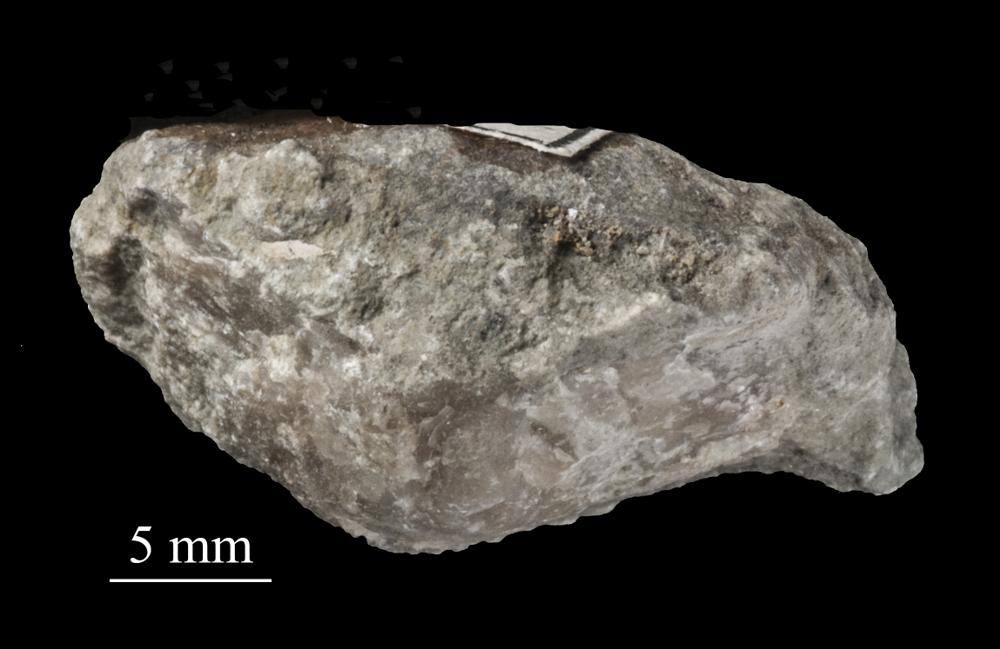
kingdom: Animalia
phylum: Brachiopoda
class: Rhynchonellata
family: Clitambonitidae
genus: Clitambonites
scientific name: Clitambonites squamatus
